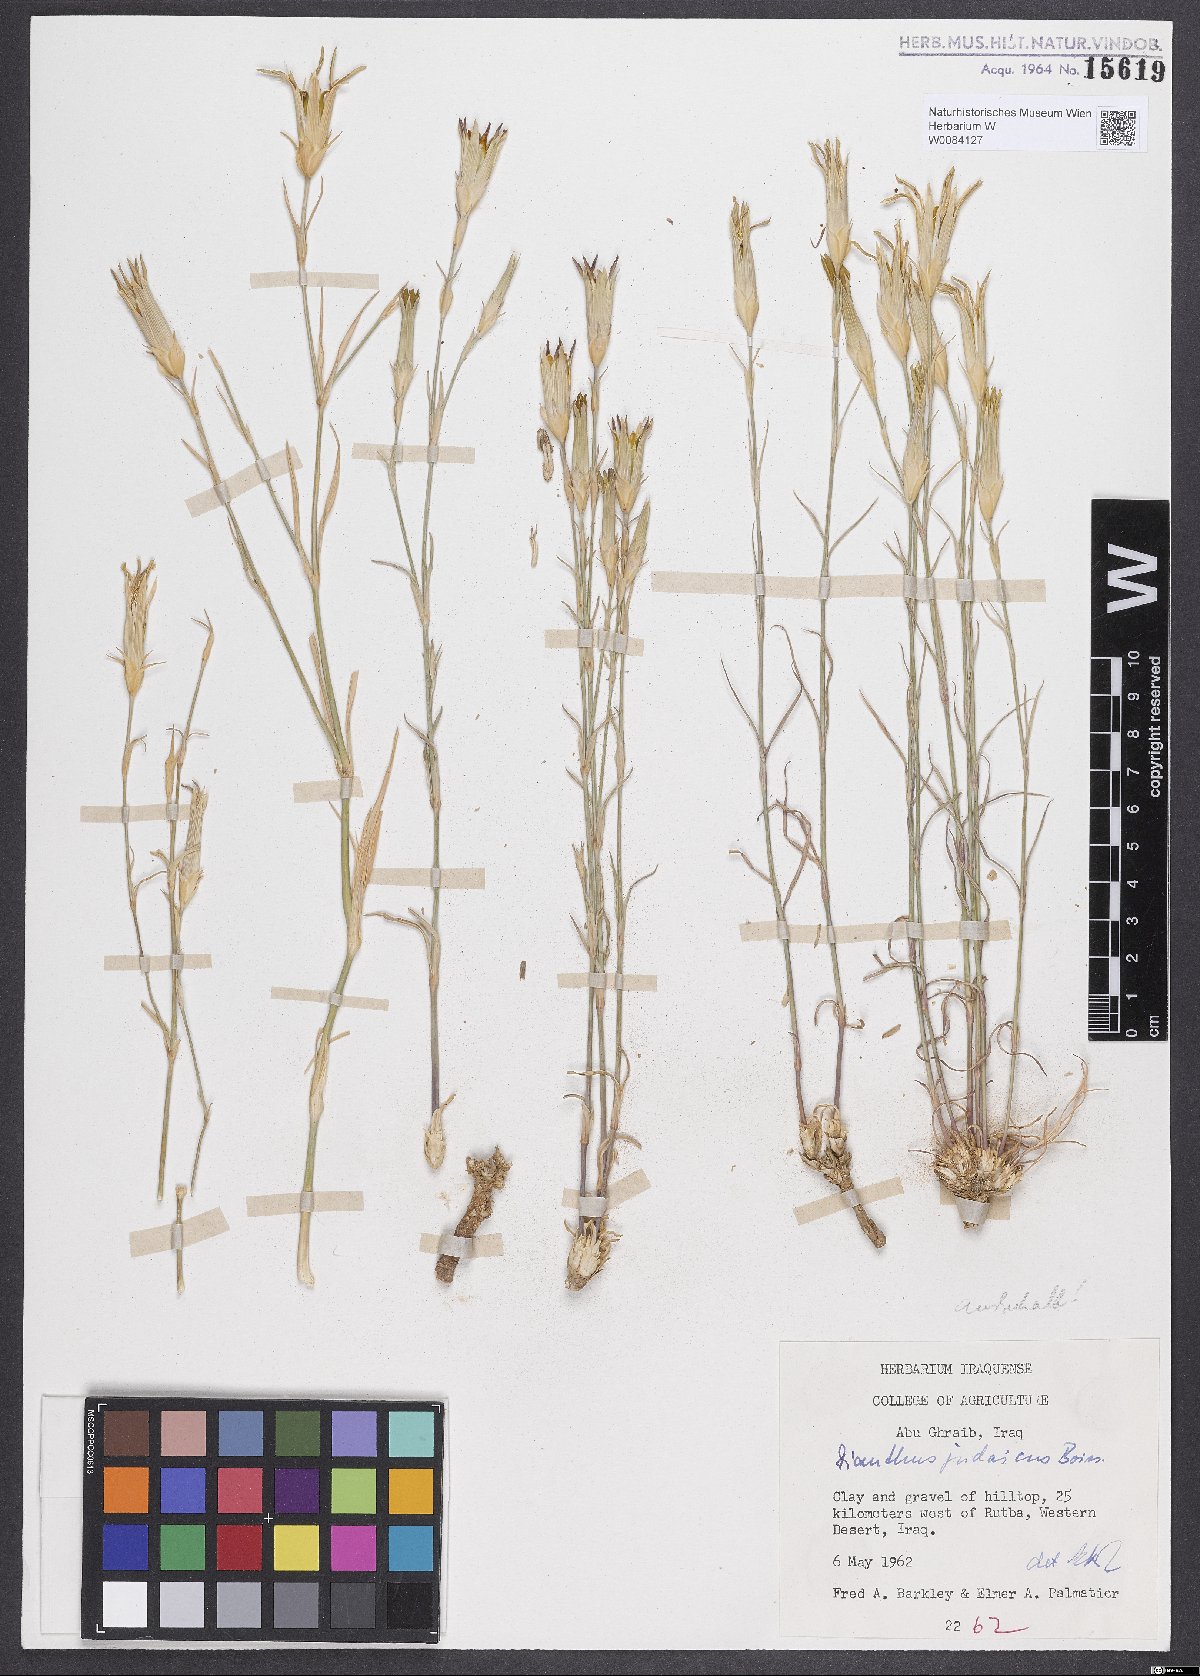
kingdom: Plantae
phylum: Tracheophyta
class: Magnoliopsida
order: Caryophyllales
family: Caryophyllaceae
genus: Dianthus
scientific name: Dianthus monadelphus
